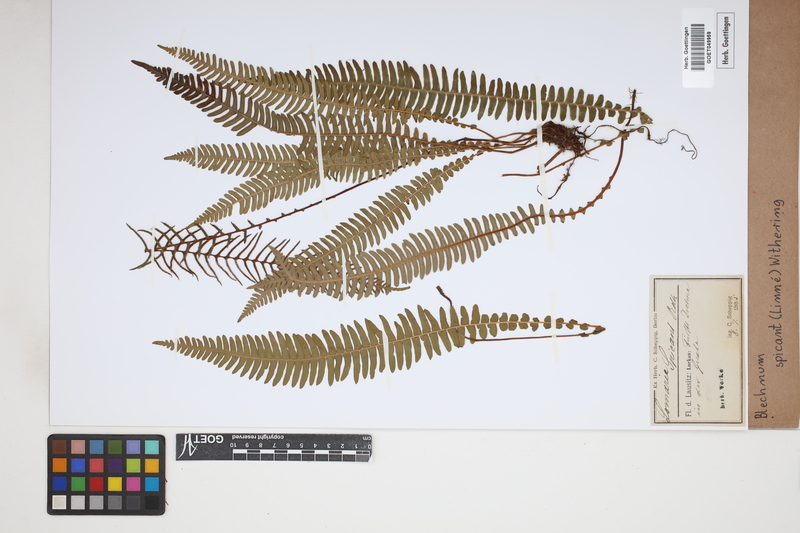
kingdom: Plantae
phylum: Tracheophyta
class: Polypodiopsida
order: Polypodiales
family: Blechnaceae
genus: Struthiopteris
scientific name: Struthiopteris spicant
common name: Deer fern
